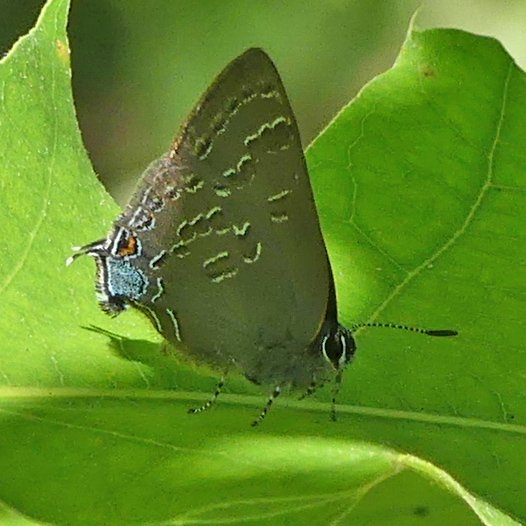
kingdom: Animalia
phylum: Arthropoda
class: Insecta
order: Lepidoptera
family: Lycaenidae
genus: Strymon
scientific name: Strymon caryaevorus
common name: Hickory Hairstreak
